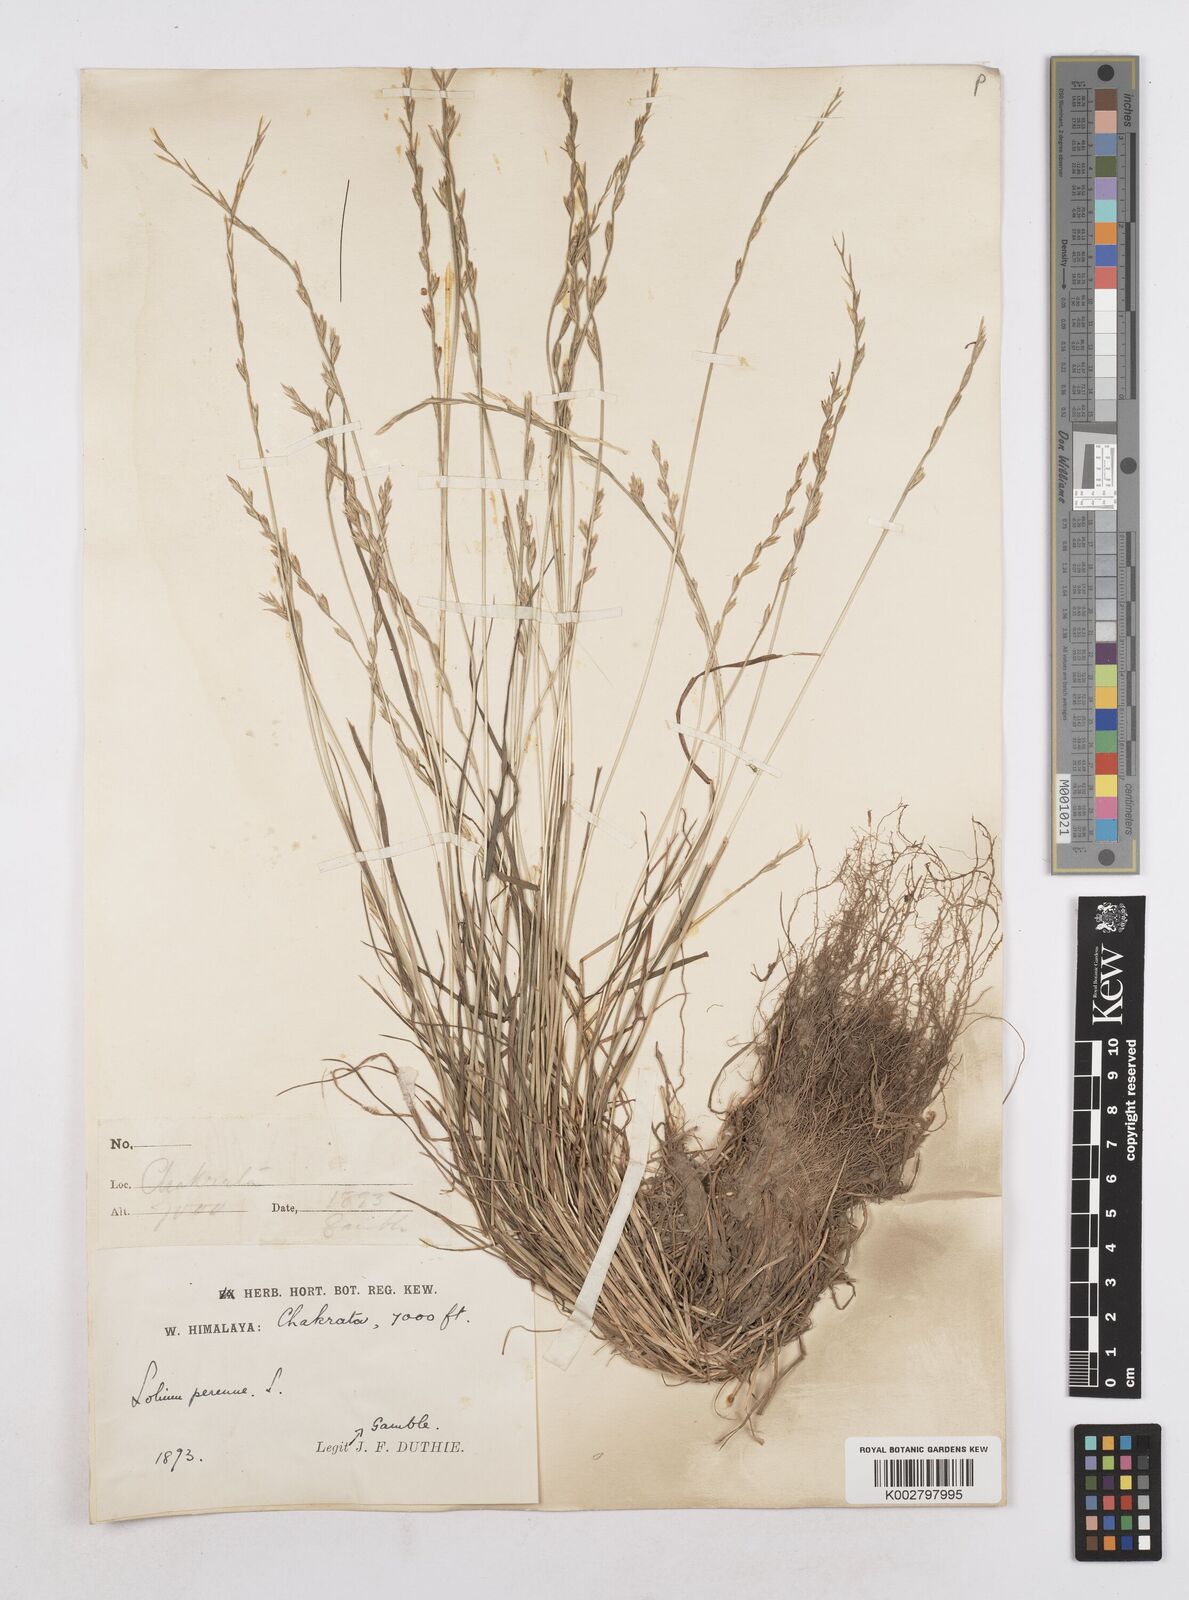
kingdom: Plantae
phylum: Tracheophyta
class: Liliopsida
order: Poales
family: Poaceae
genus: Lolium
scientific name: Lolium perenne
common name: Perennial ryegrass
